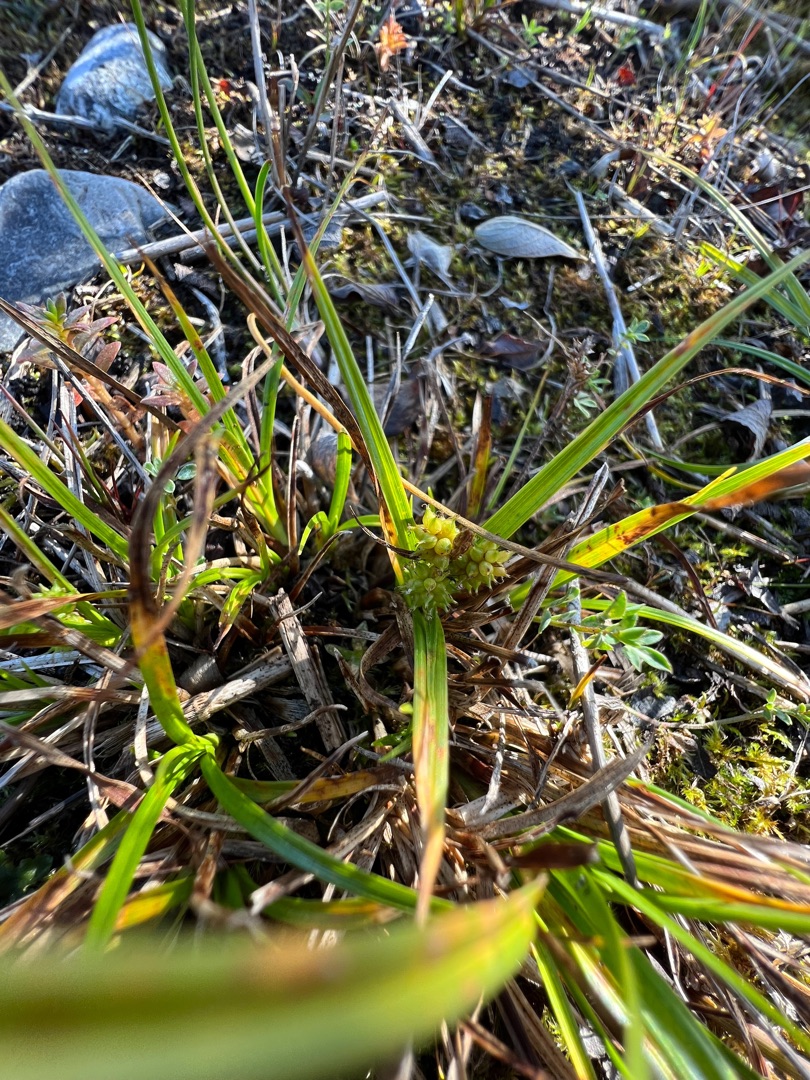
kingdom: Plantae
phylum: Tracheophyta
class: Liliopsida
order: Poales
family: Cyperaceae
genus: Carex
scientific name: Carex oederi
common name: Dværg-star
